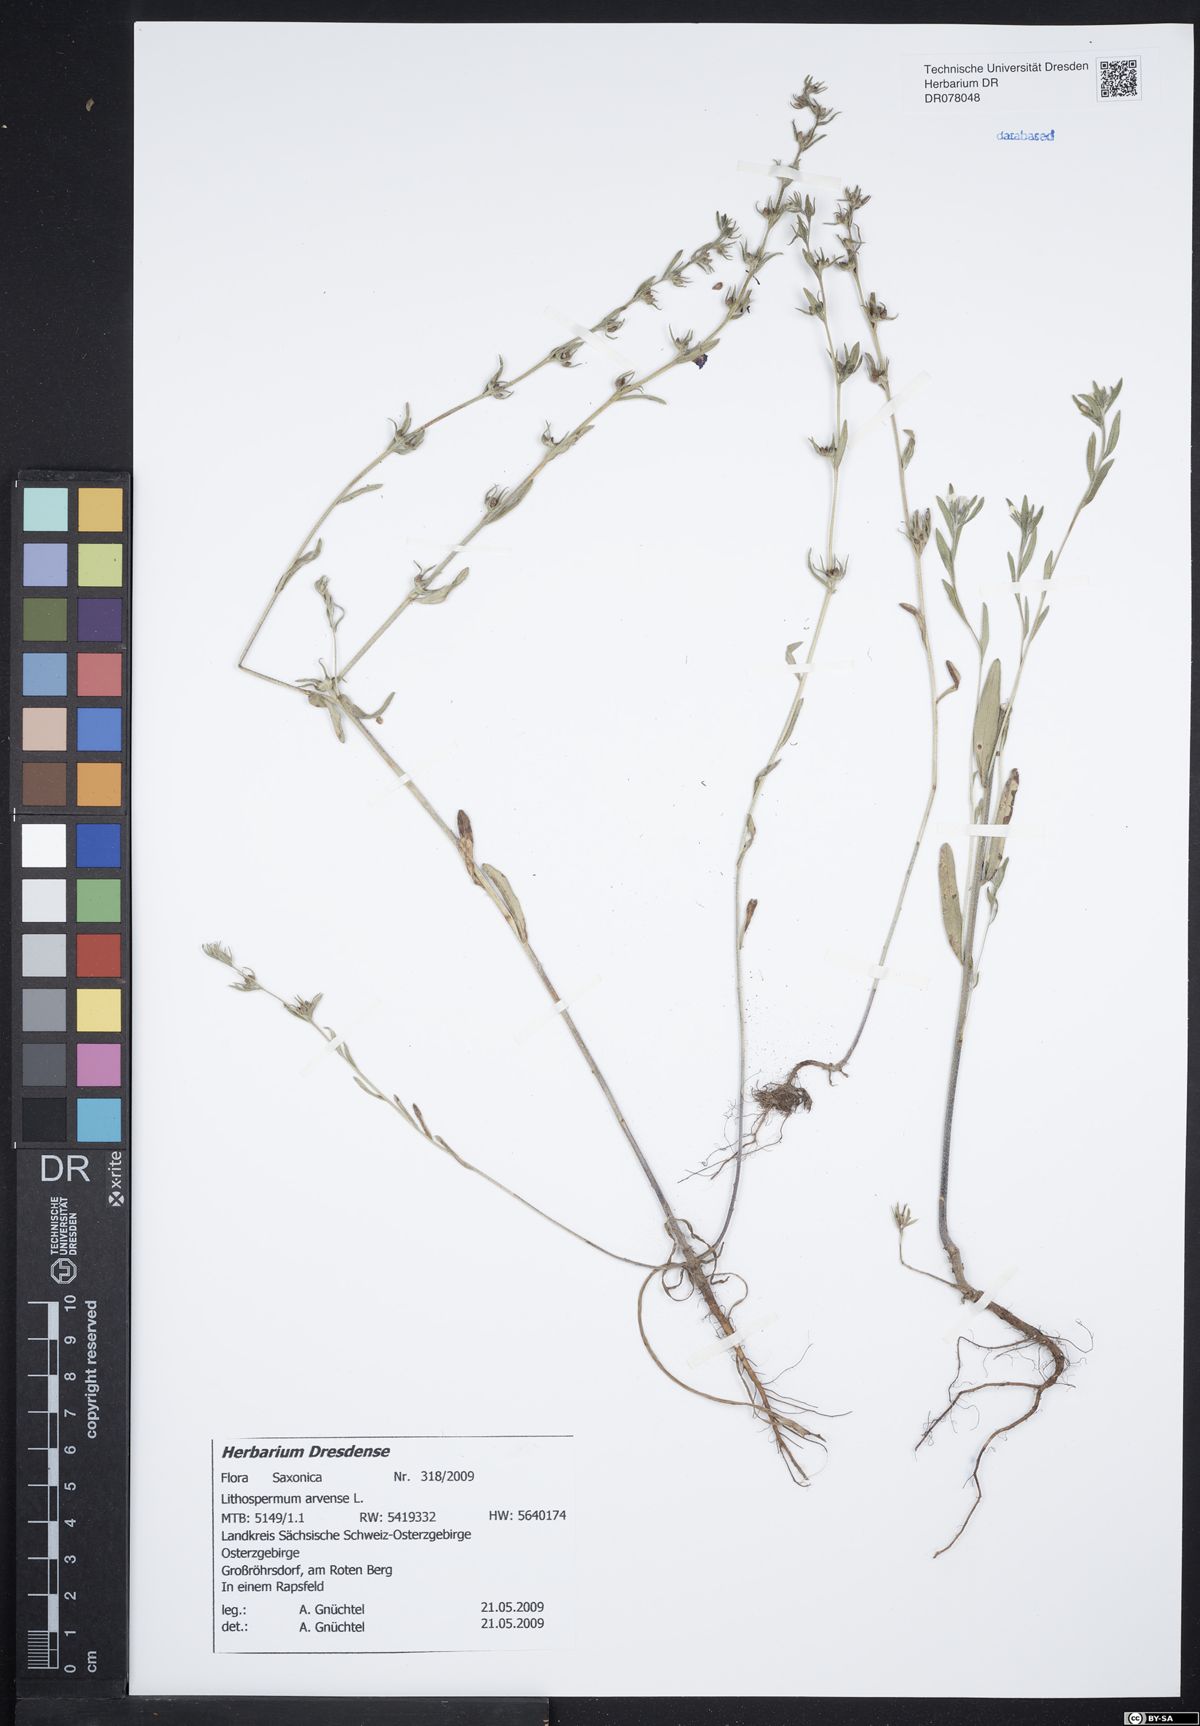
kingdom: Plantae
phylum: Tracheophyta
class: Magnoliopsida
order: Boraginales
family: Boraginaceae
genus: Buglossoides
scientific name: Buglossoides arvensis
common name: Corn gromwell
